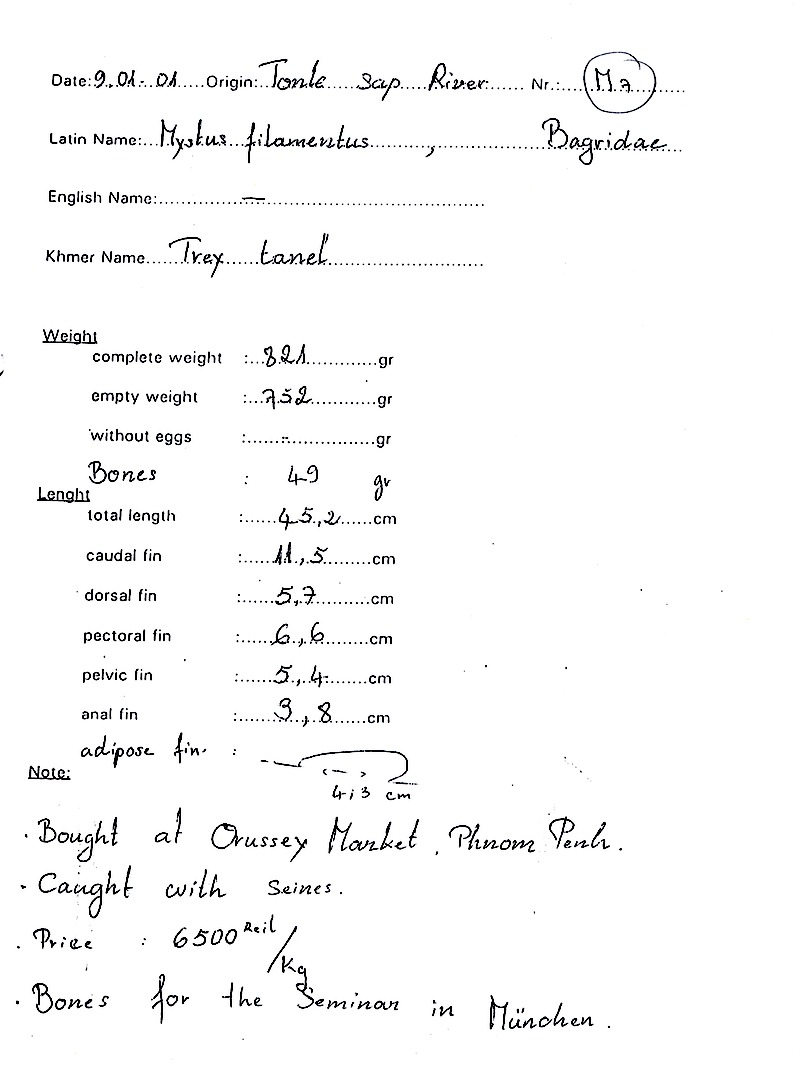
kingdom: Animalia
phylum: Chordata
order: Siluriformes
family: Bagridae
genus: Hemibagrus
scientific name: Hemibagrus filamentus
